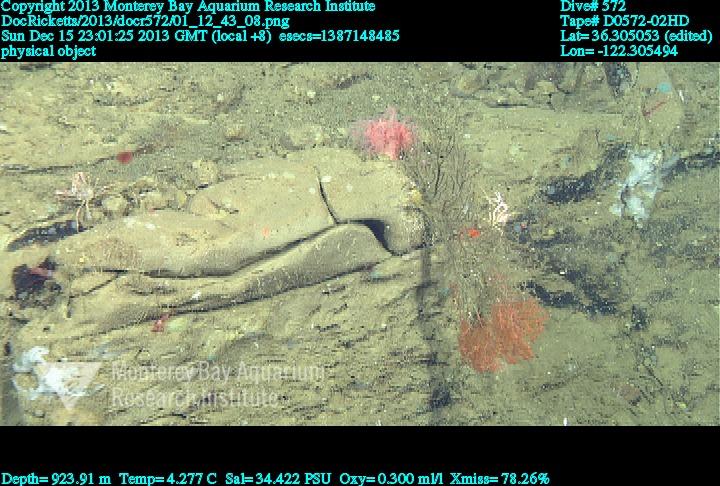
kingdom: Animalia
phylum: Cnidaria
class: Anthozoa
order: Malacalcyonacea
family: Gorgoniidae
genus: Callistephanus
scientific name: Callistephanus kofoidi
